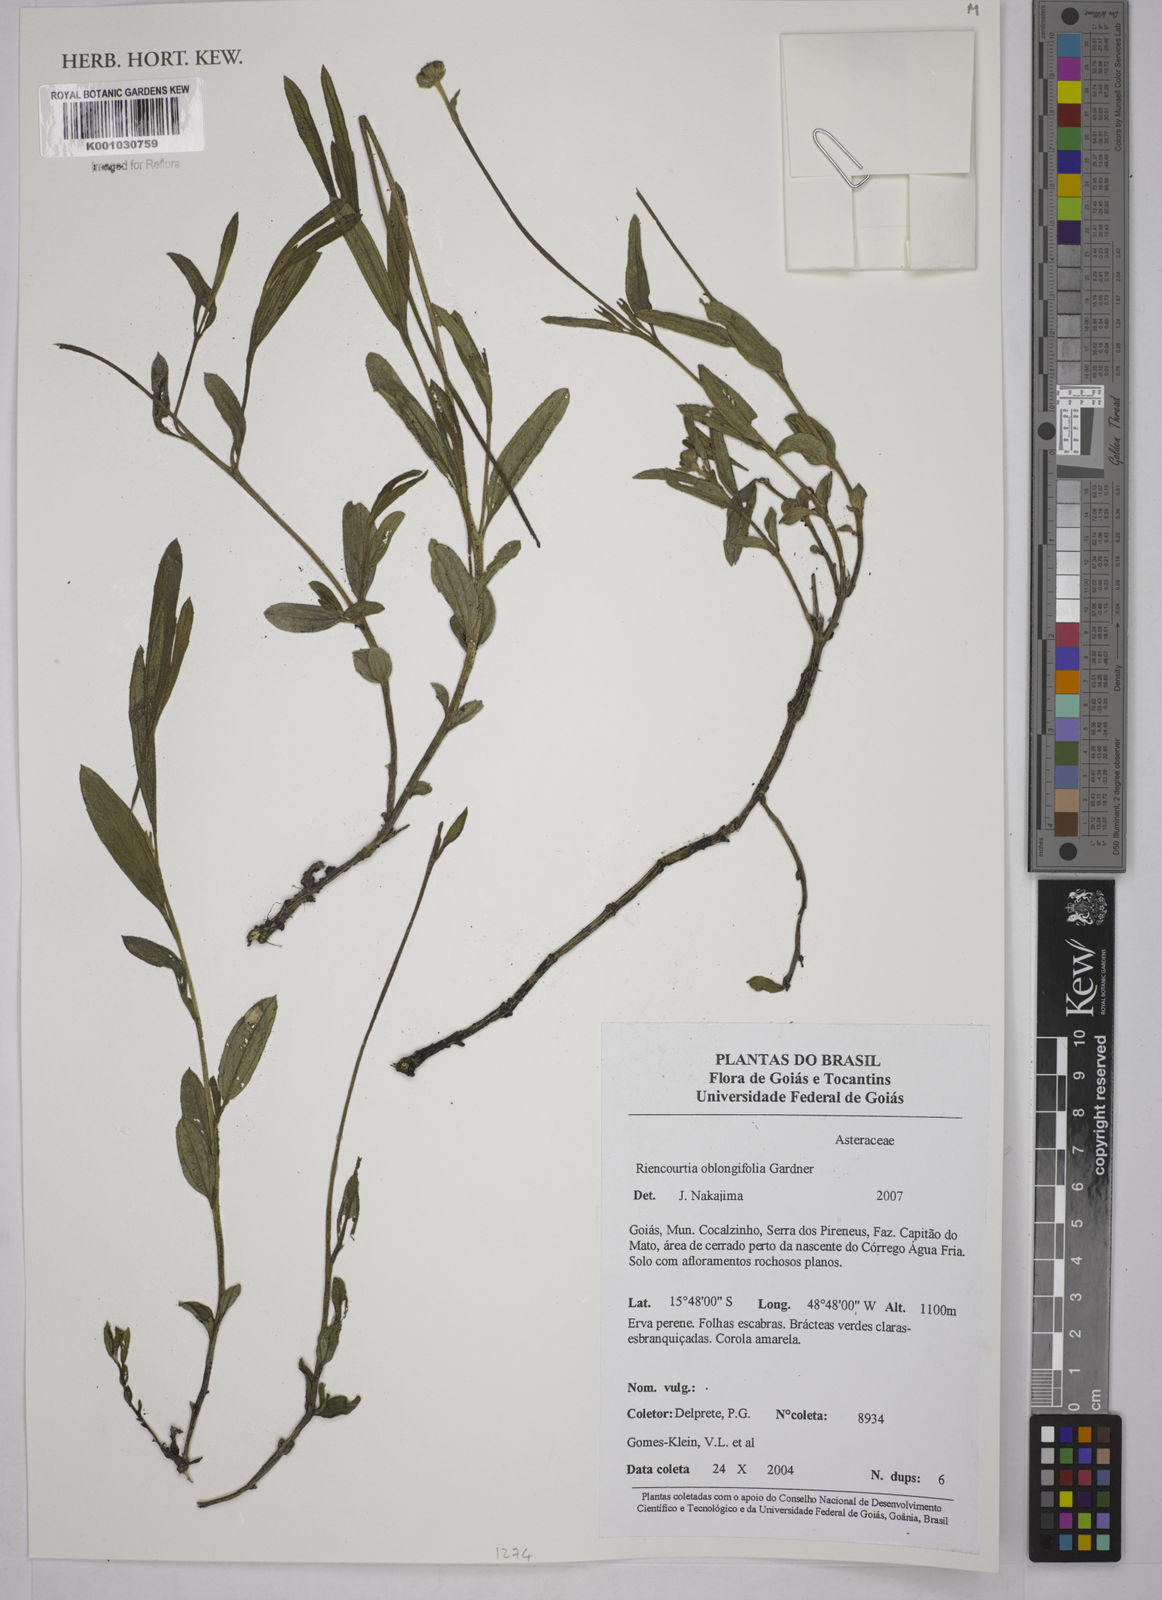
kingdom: Plantae
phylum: Tracheophyta
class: Magnoliopsida
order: Asterales
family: Asteraceae
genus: Riencourtia
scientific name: Riencourtia oblongifolia
